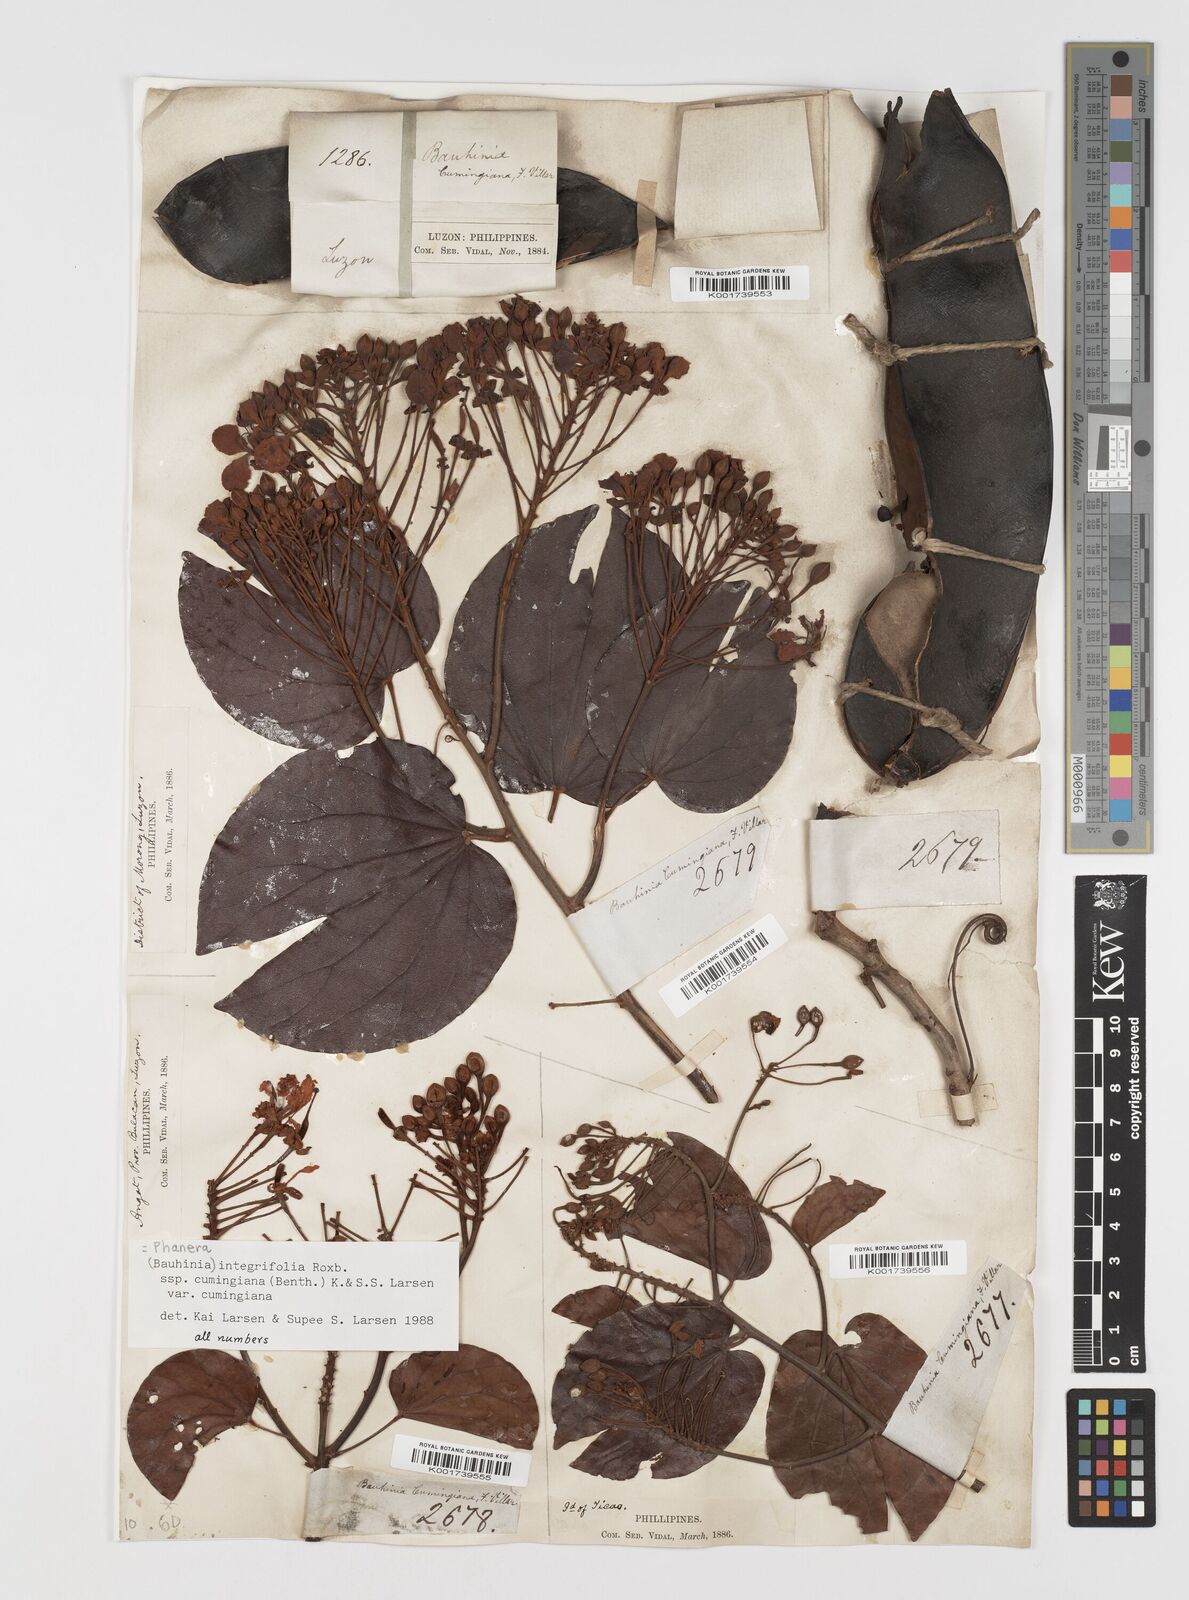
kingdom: Plantae
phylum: Tracheophyta
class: Magnoliopsida
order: Fabales
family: Fabaceae
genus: Phanera
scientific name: Phanera integrifolia
